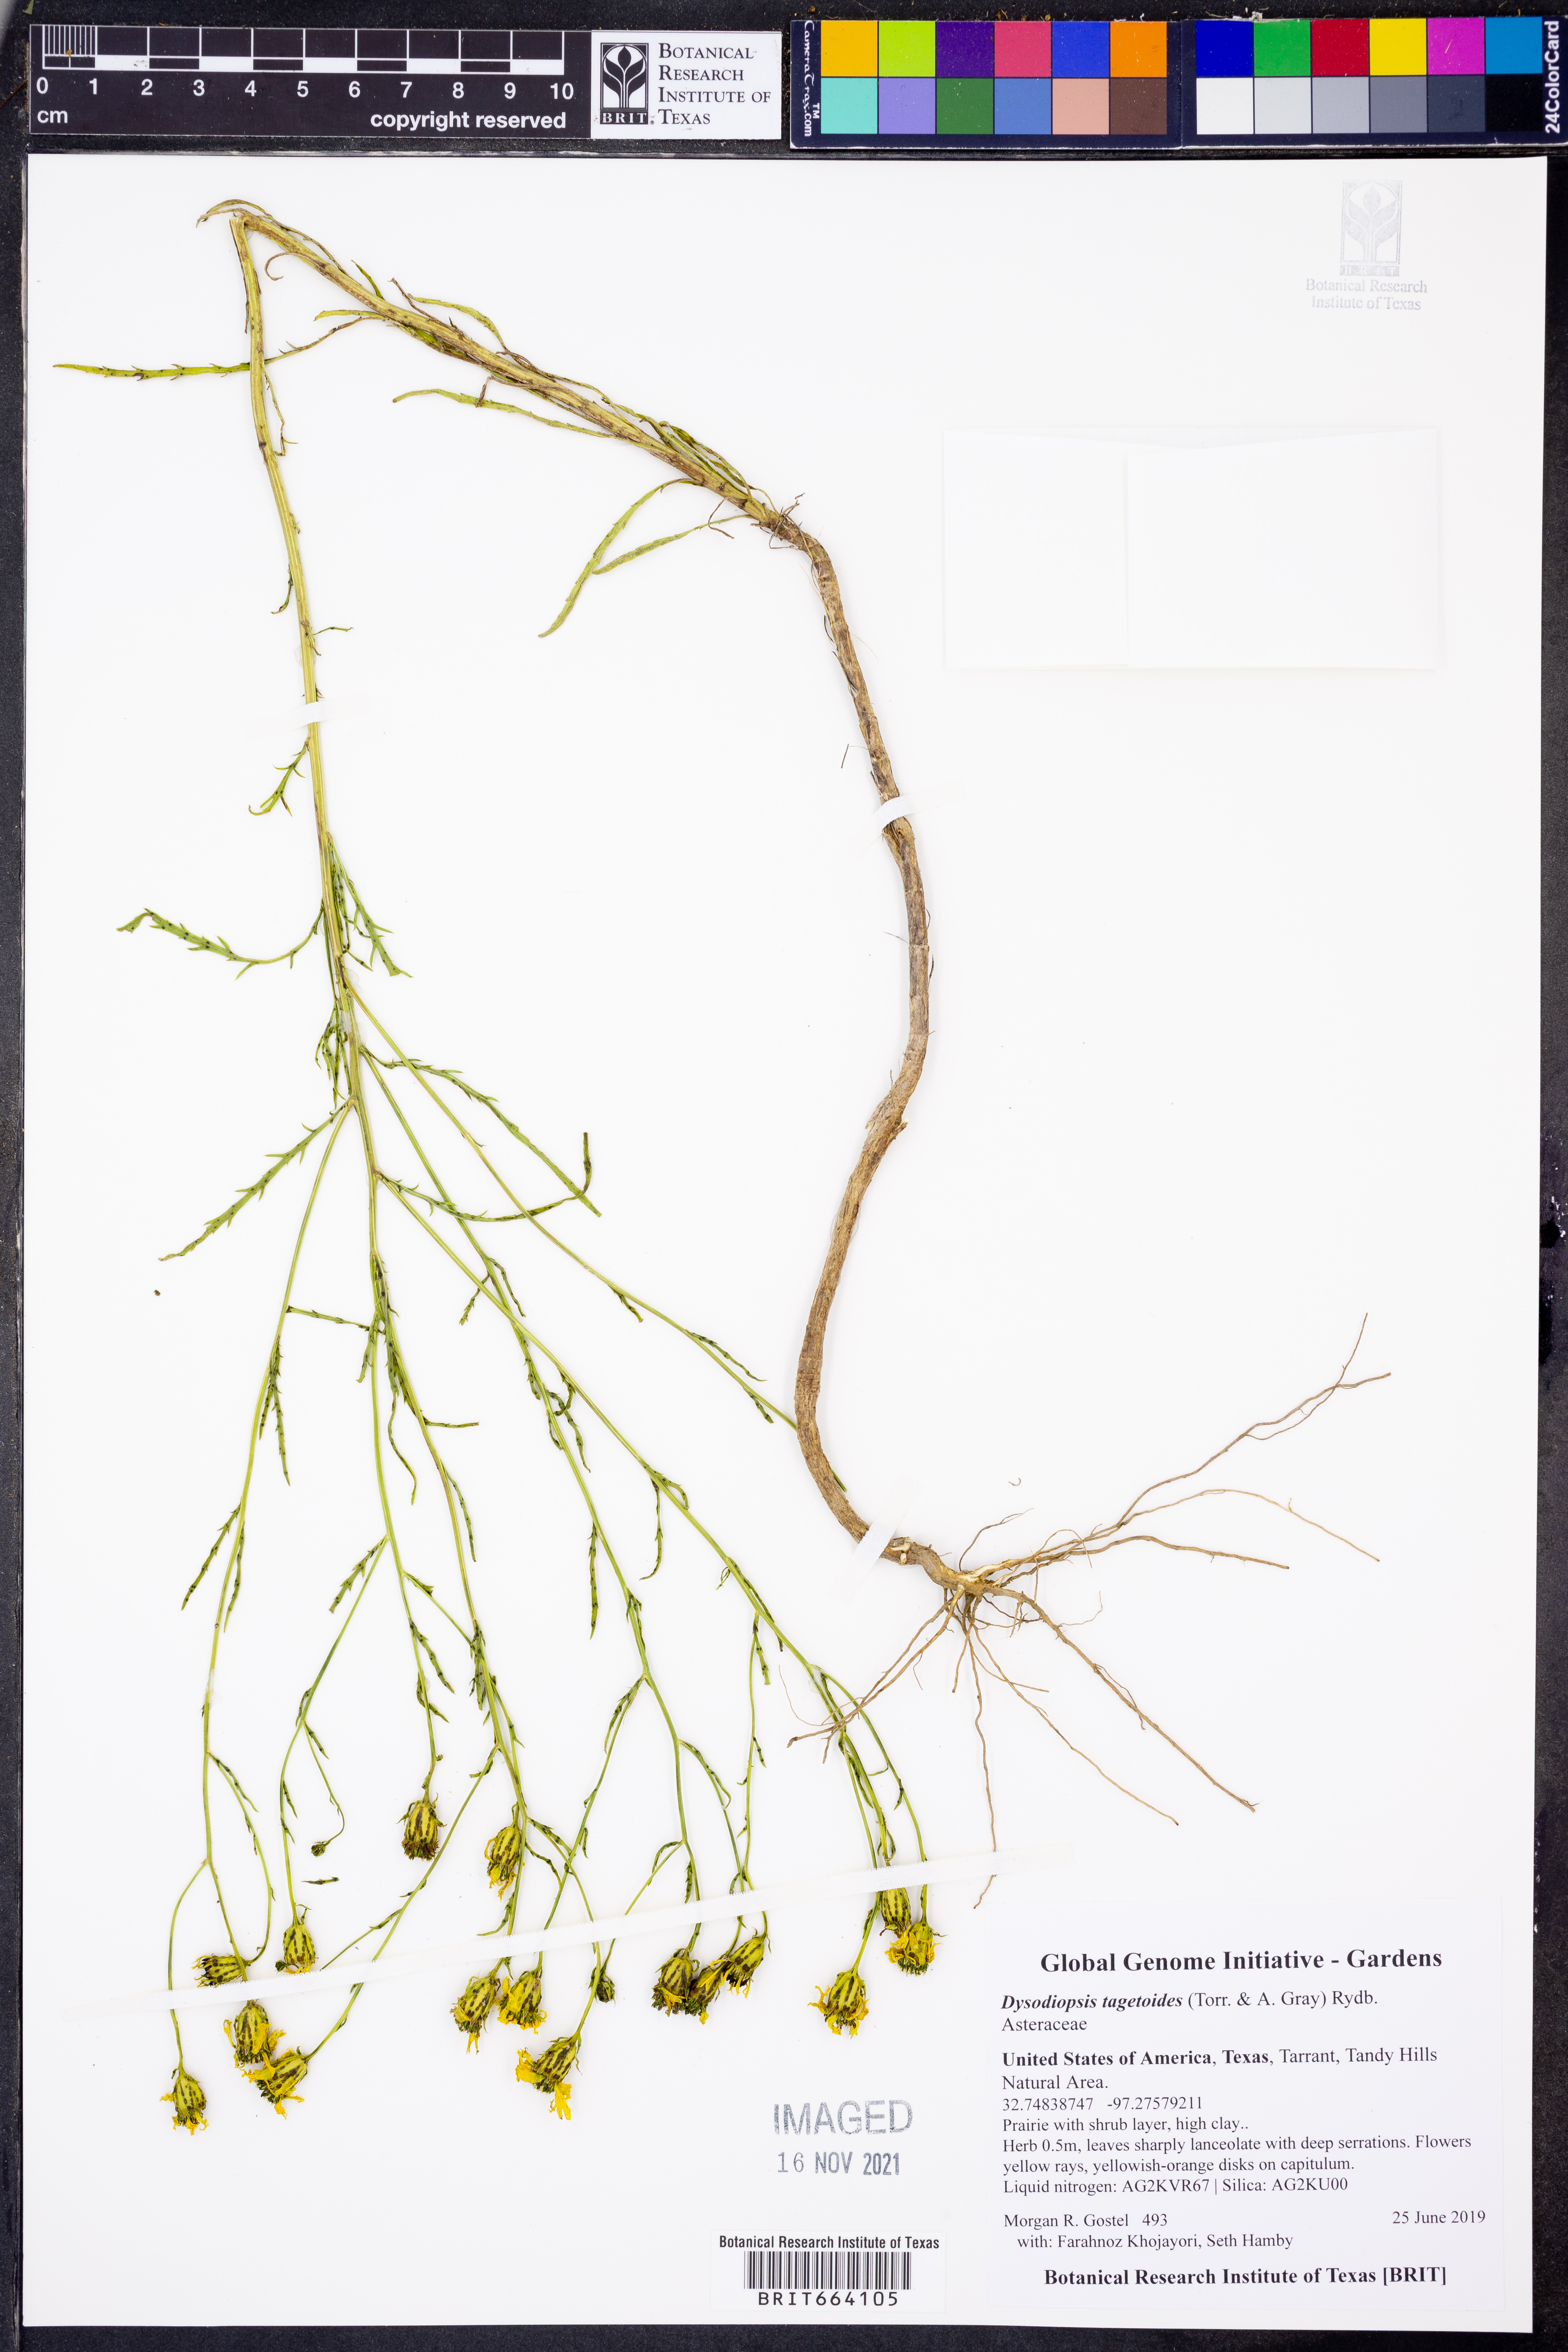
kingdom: Plantae
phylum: Tracheophyta
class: Magnoliopsida
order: Asterales
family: Asteraceae
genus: Dysodiopsis
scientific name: Dysodiopsis tagetoides
